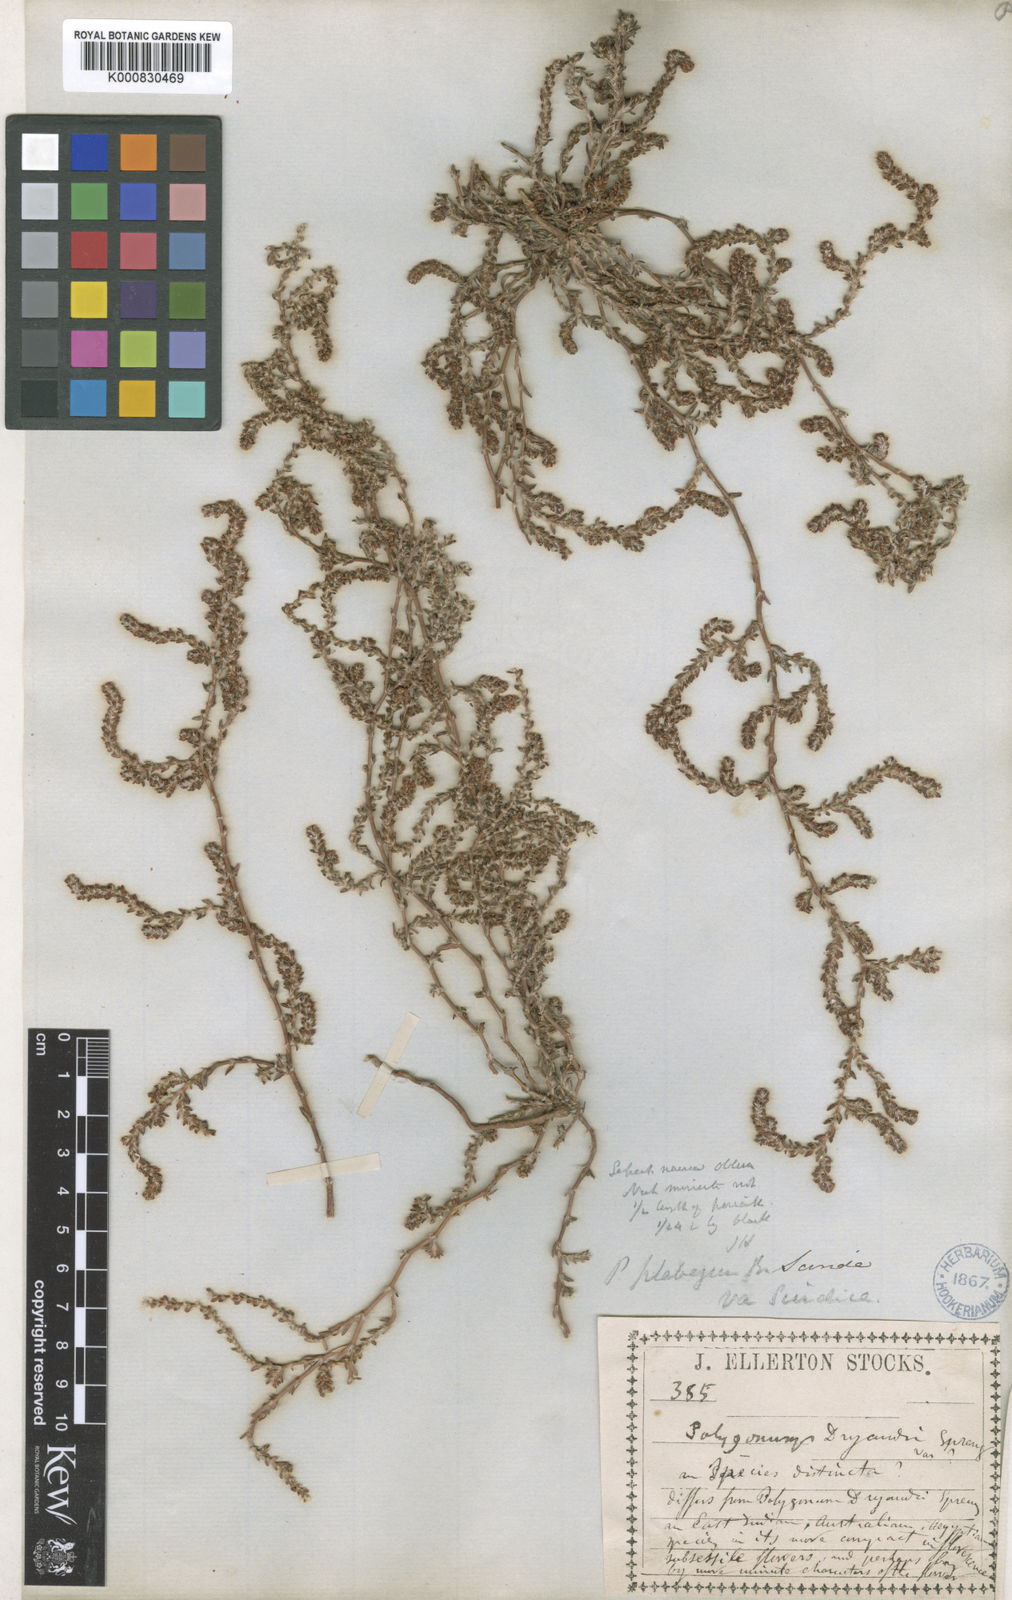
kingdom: Plantae
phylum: Tracheophyta
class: Magnoliopsida
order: Caryophyllales
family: Polygonaceae
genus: Polygonum
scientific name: Polygonum plebeium
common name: Common knotweed
